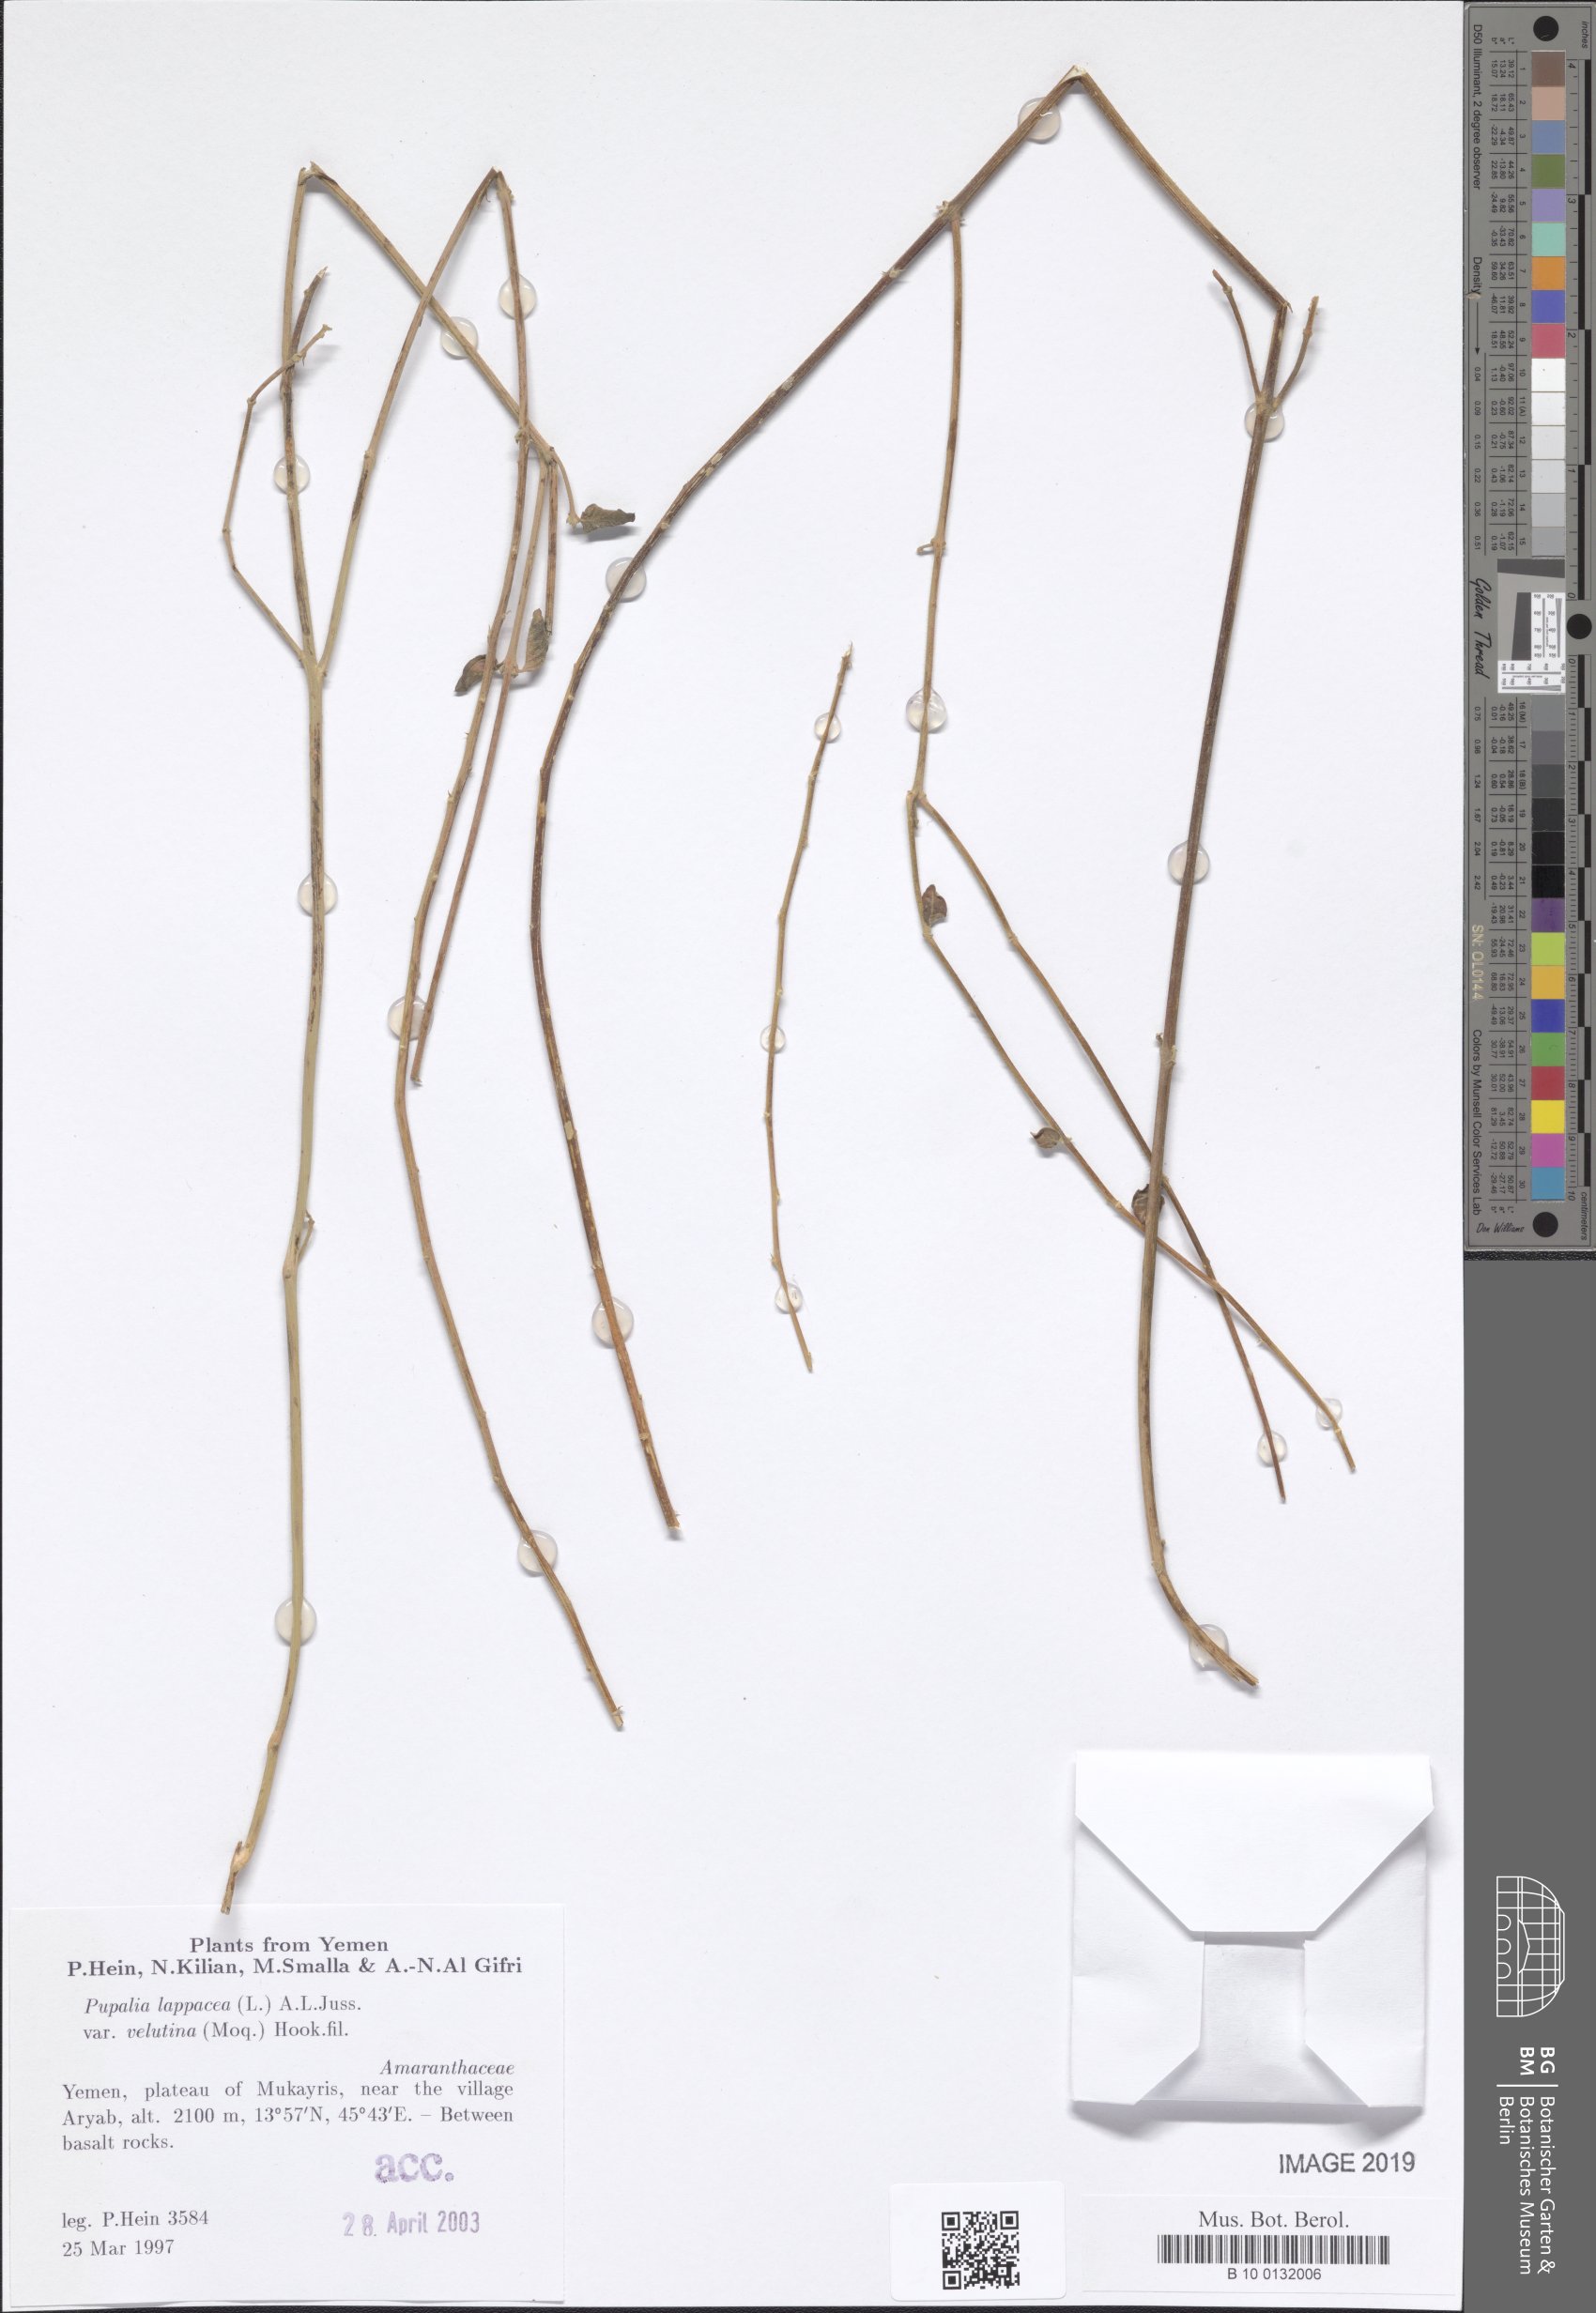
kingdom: Plantae
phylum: Tracheophyta
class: Magnoliopsida
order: Caryophyllales
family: Amaranthaceae
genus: Pupalia
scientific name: Pupalia lappacea
